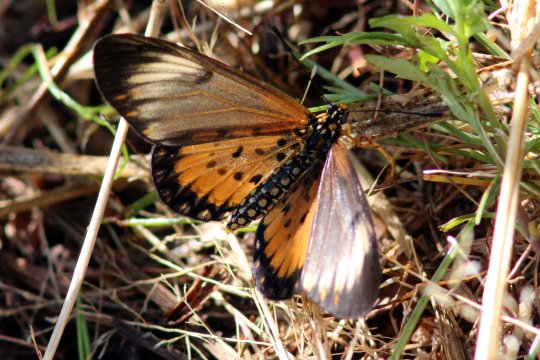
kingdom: Animalia
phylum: Arthropoda
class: Insecta
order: Lepidoptera
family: Nymphalidae
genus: Acraea
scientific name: Acraea
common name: Small Orange Acraea
